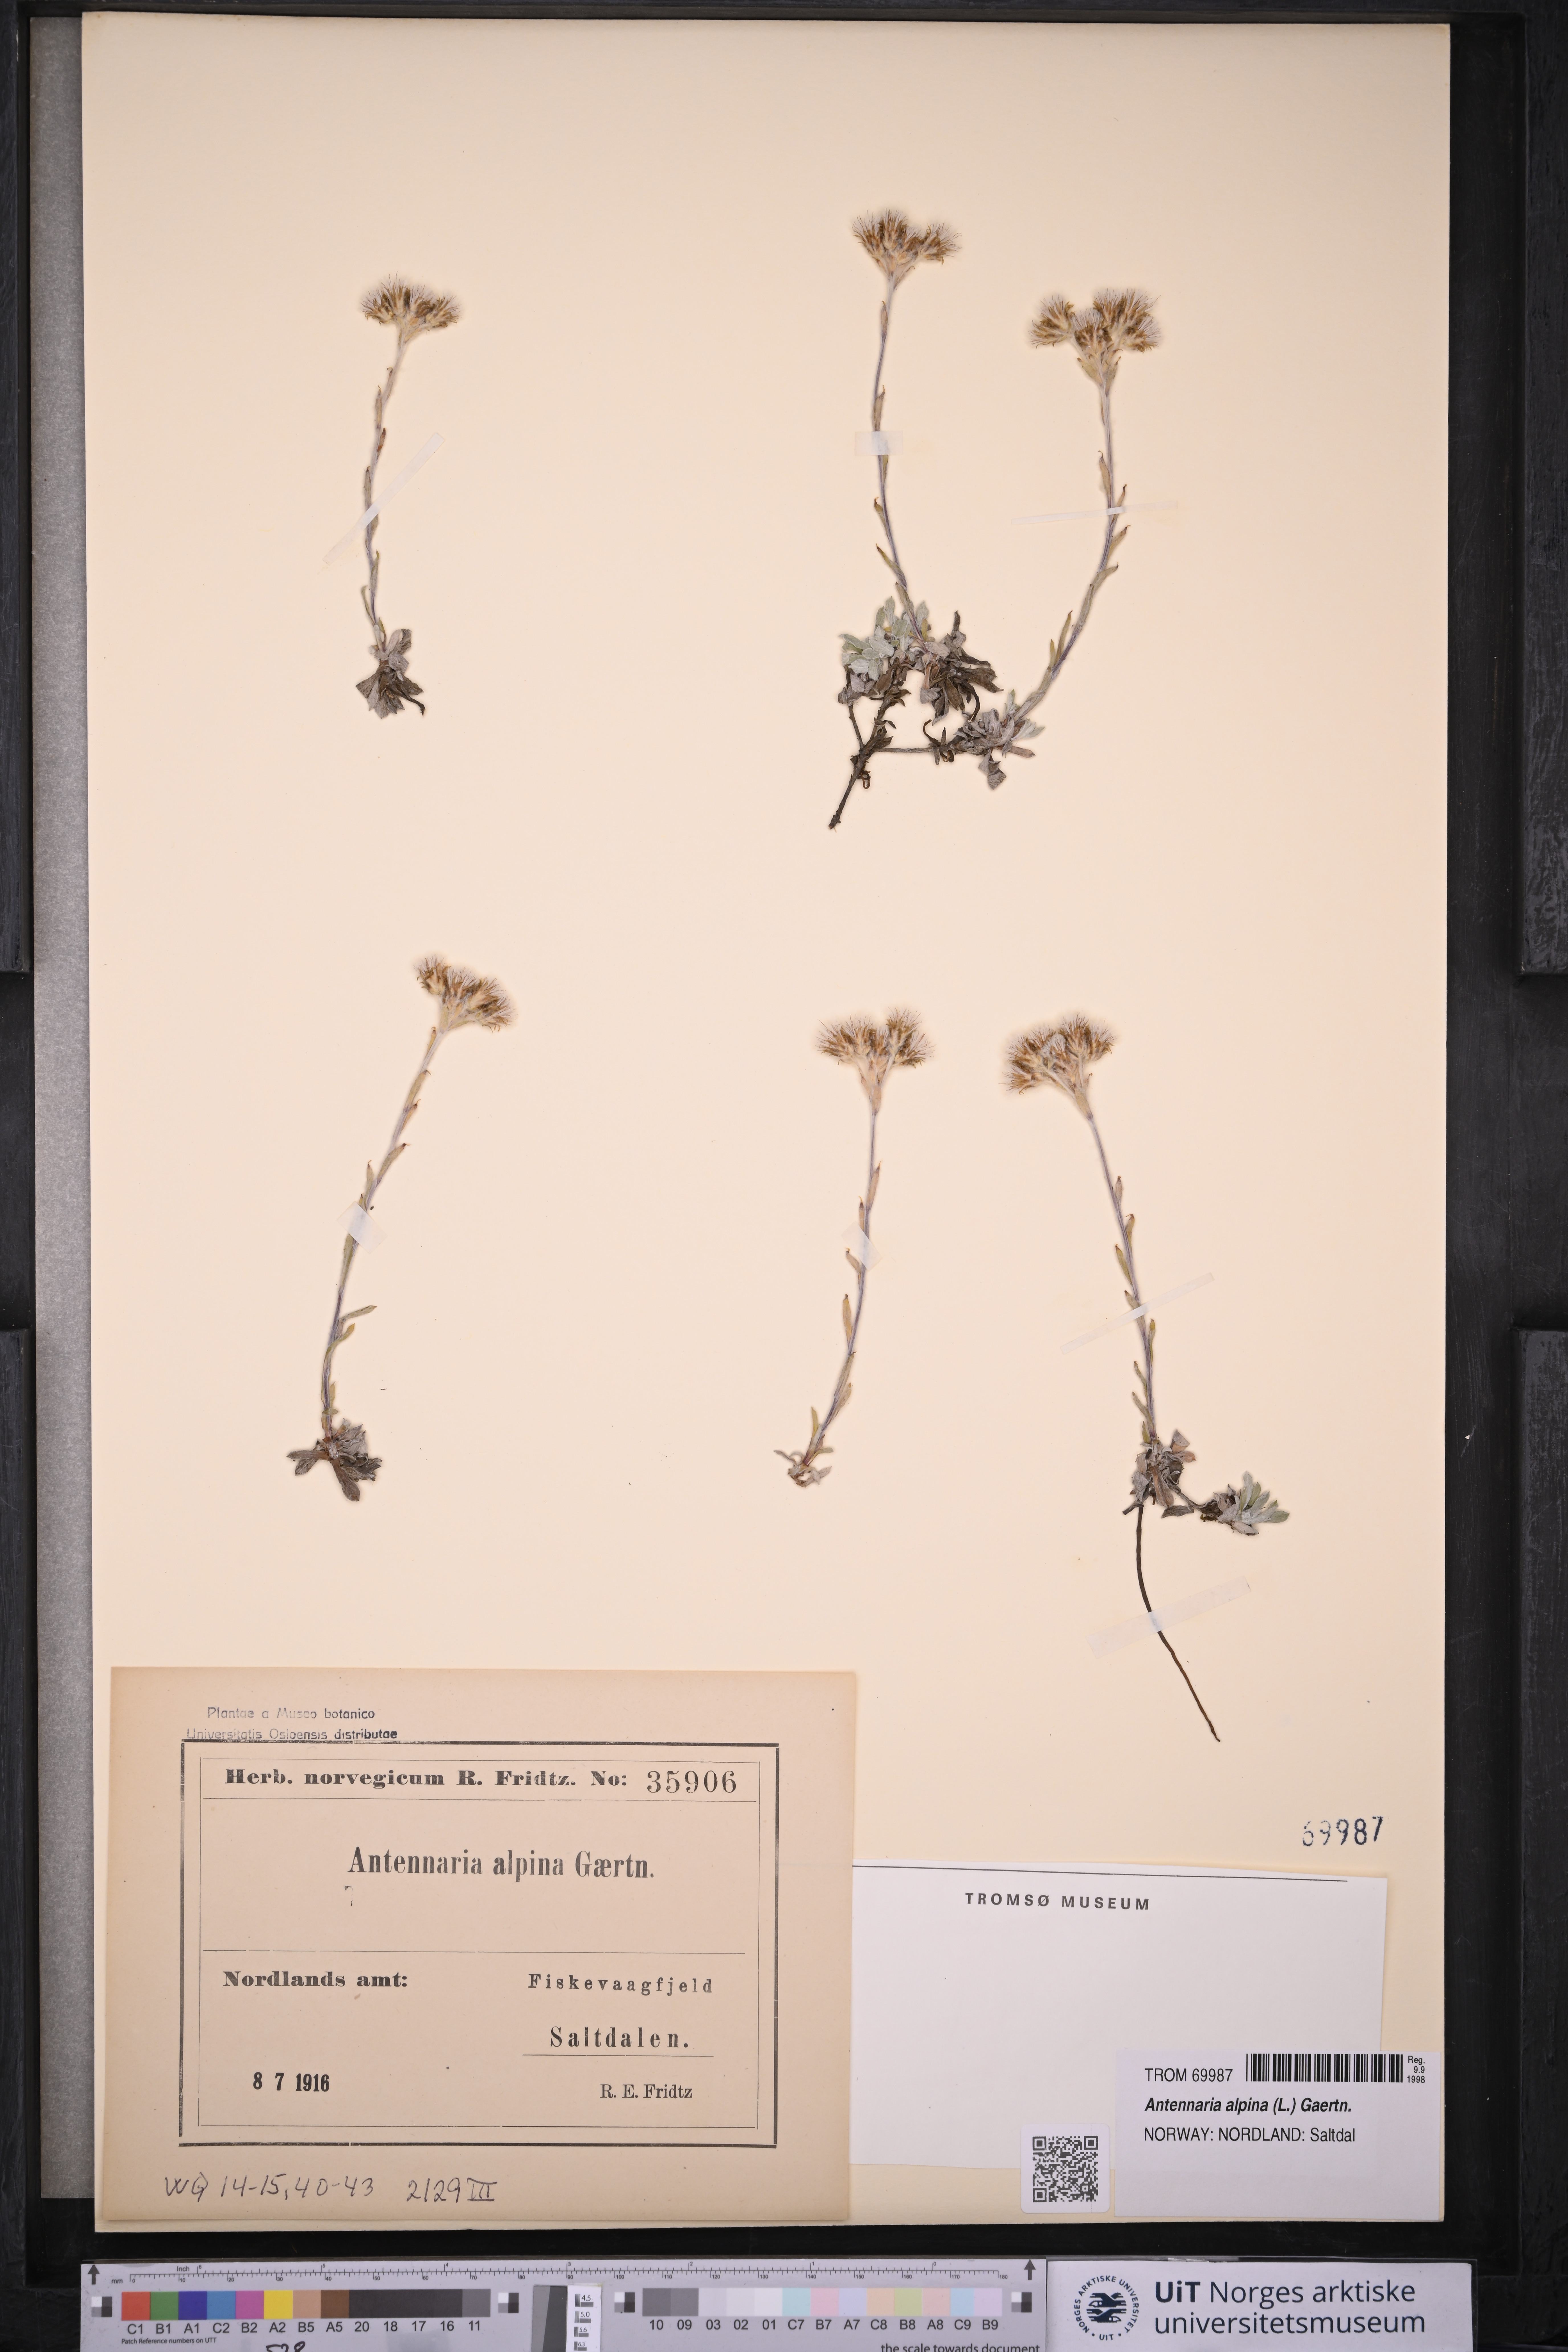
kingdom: Plantae
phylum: Tracheophyta
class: Magnoliopsida
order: Asterales
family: Asteraceae
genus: Antennaria
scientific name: Antennaria alpina
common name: Alpine pussytoes
